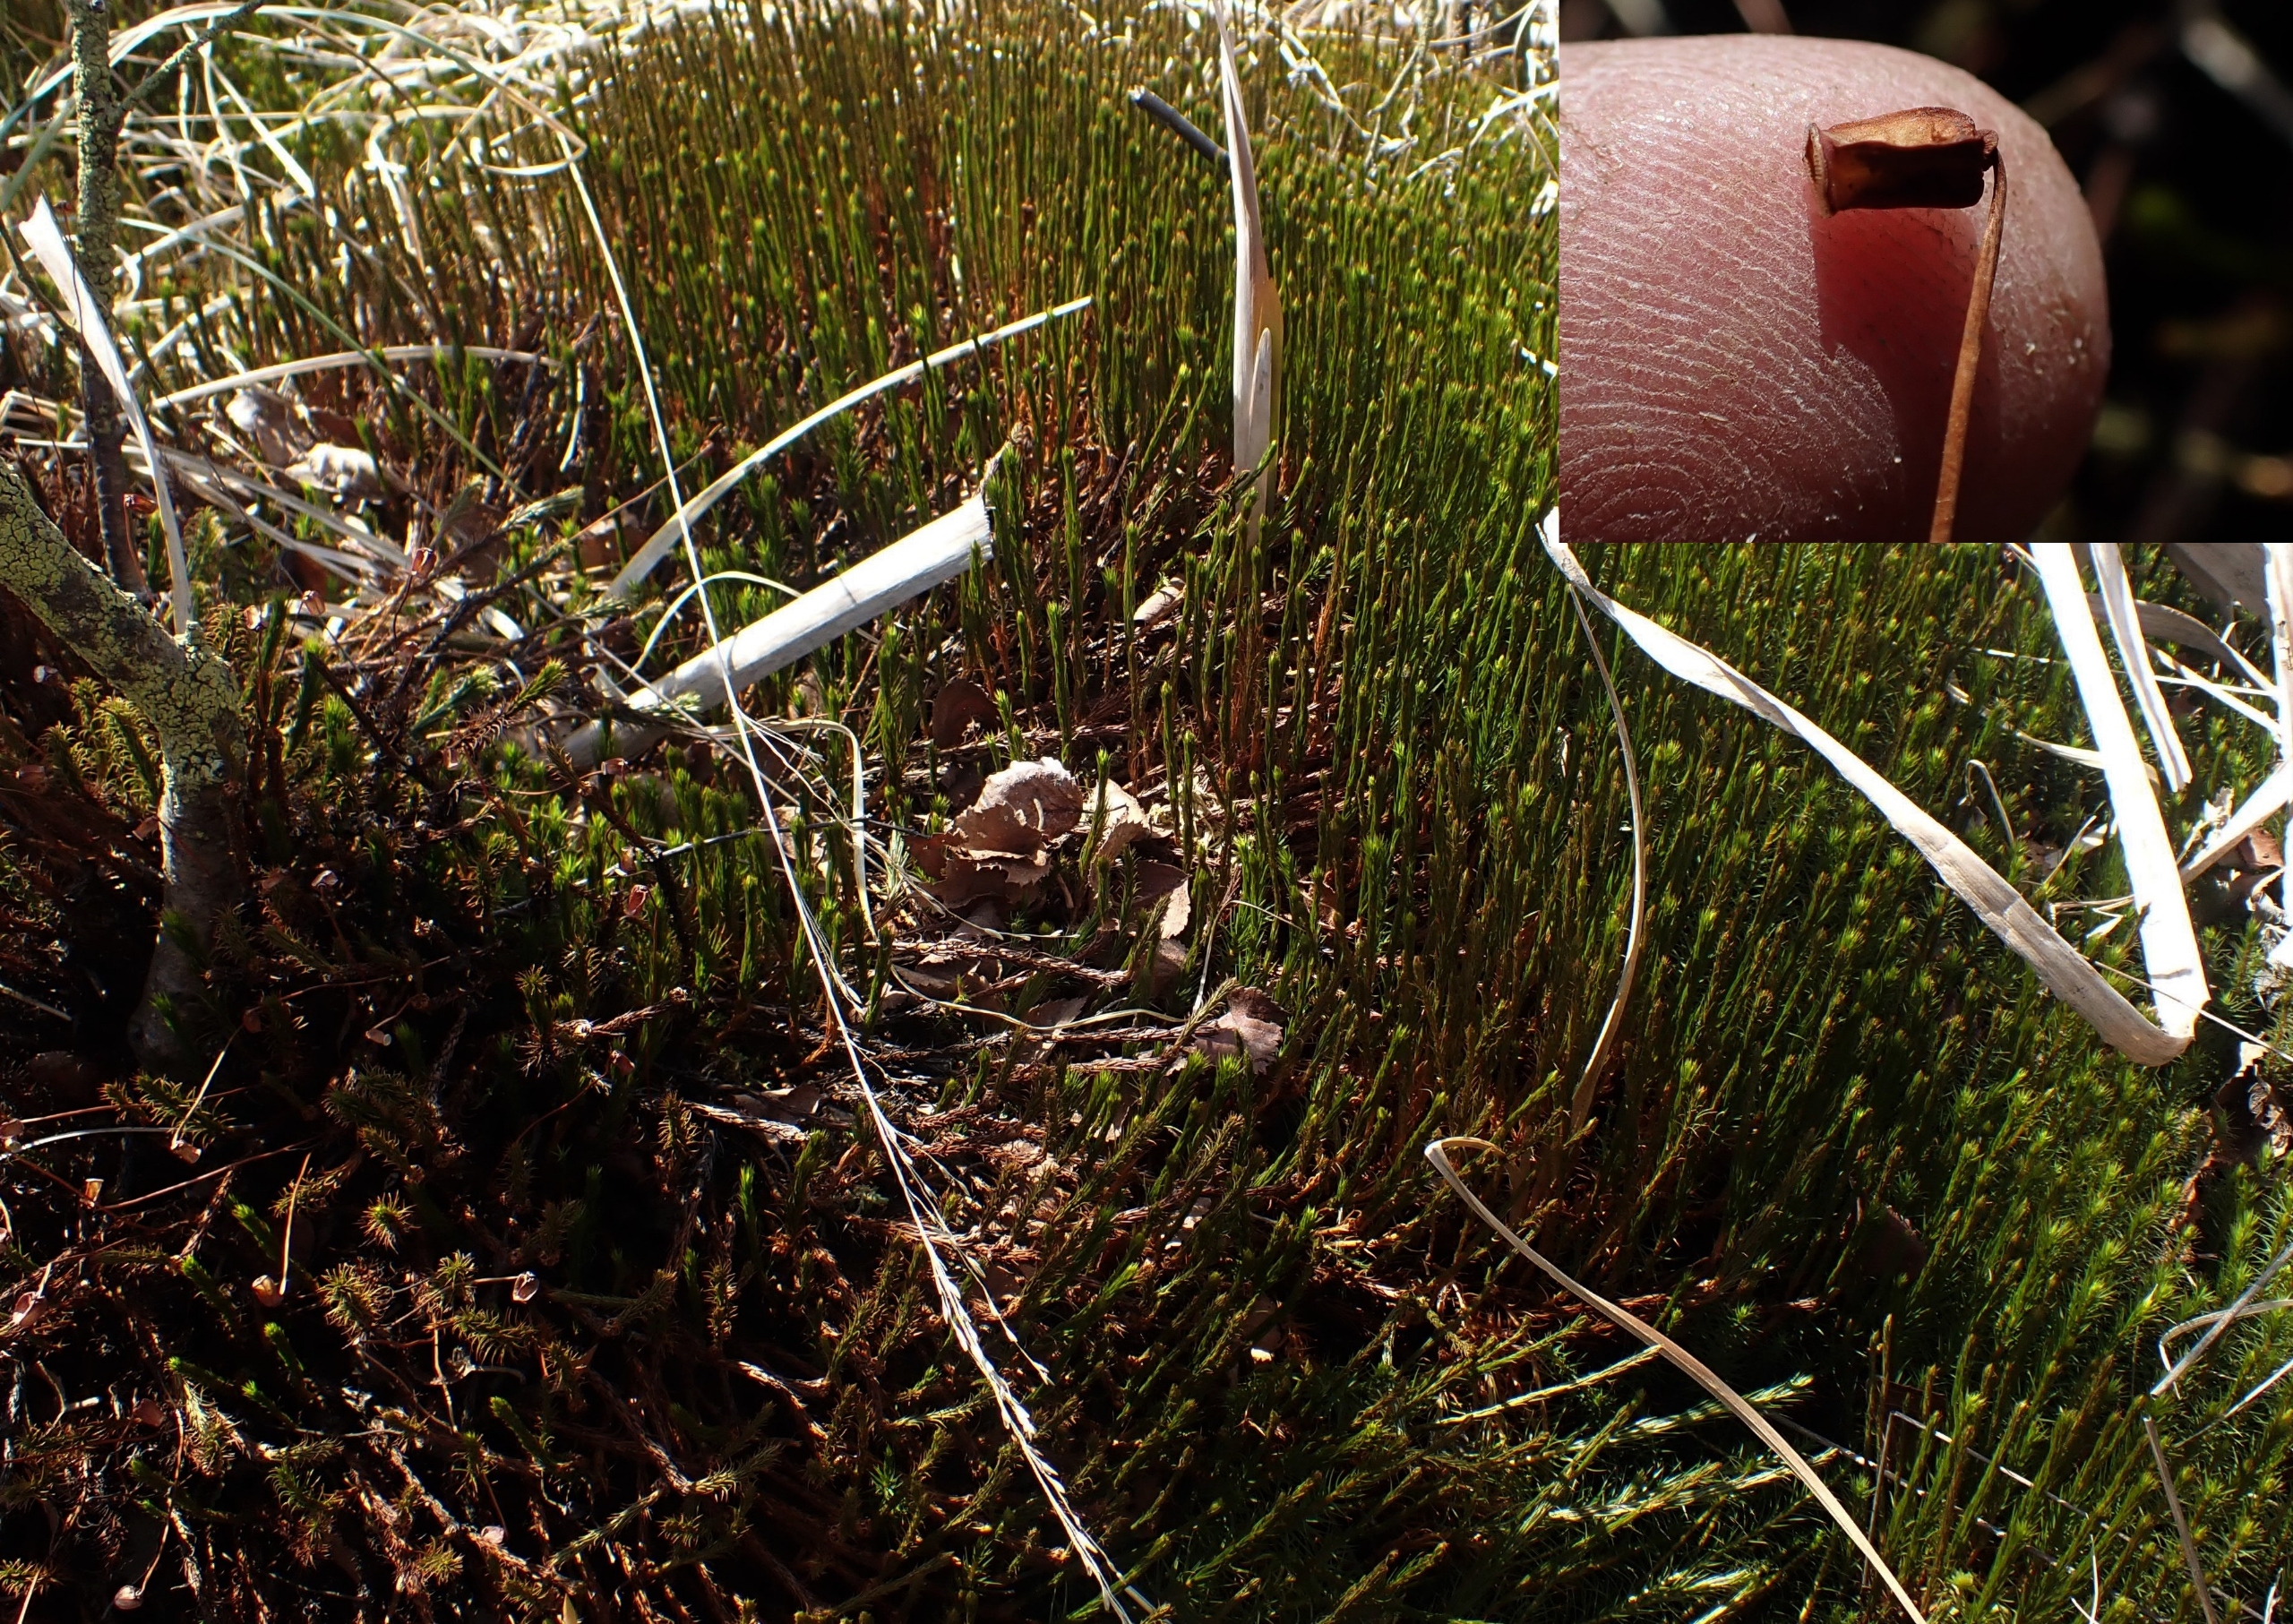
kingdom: Plantae
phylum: Bryophyta
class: Polytrichopsida
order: Polytrichales
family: Polytrichaceae
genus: Polytrichum
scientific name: Polytrichum commune
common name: Almindelig jomfruhår
